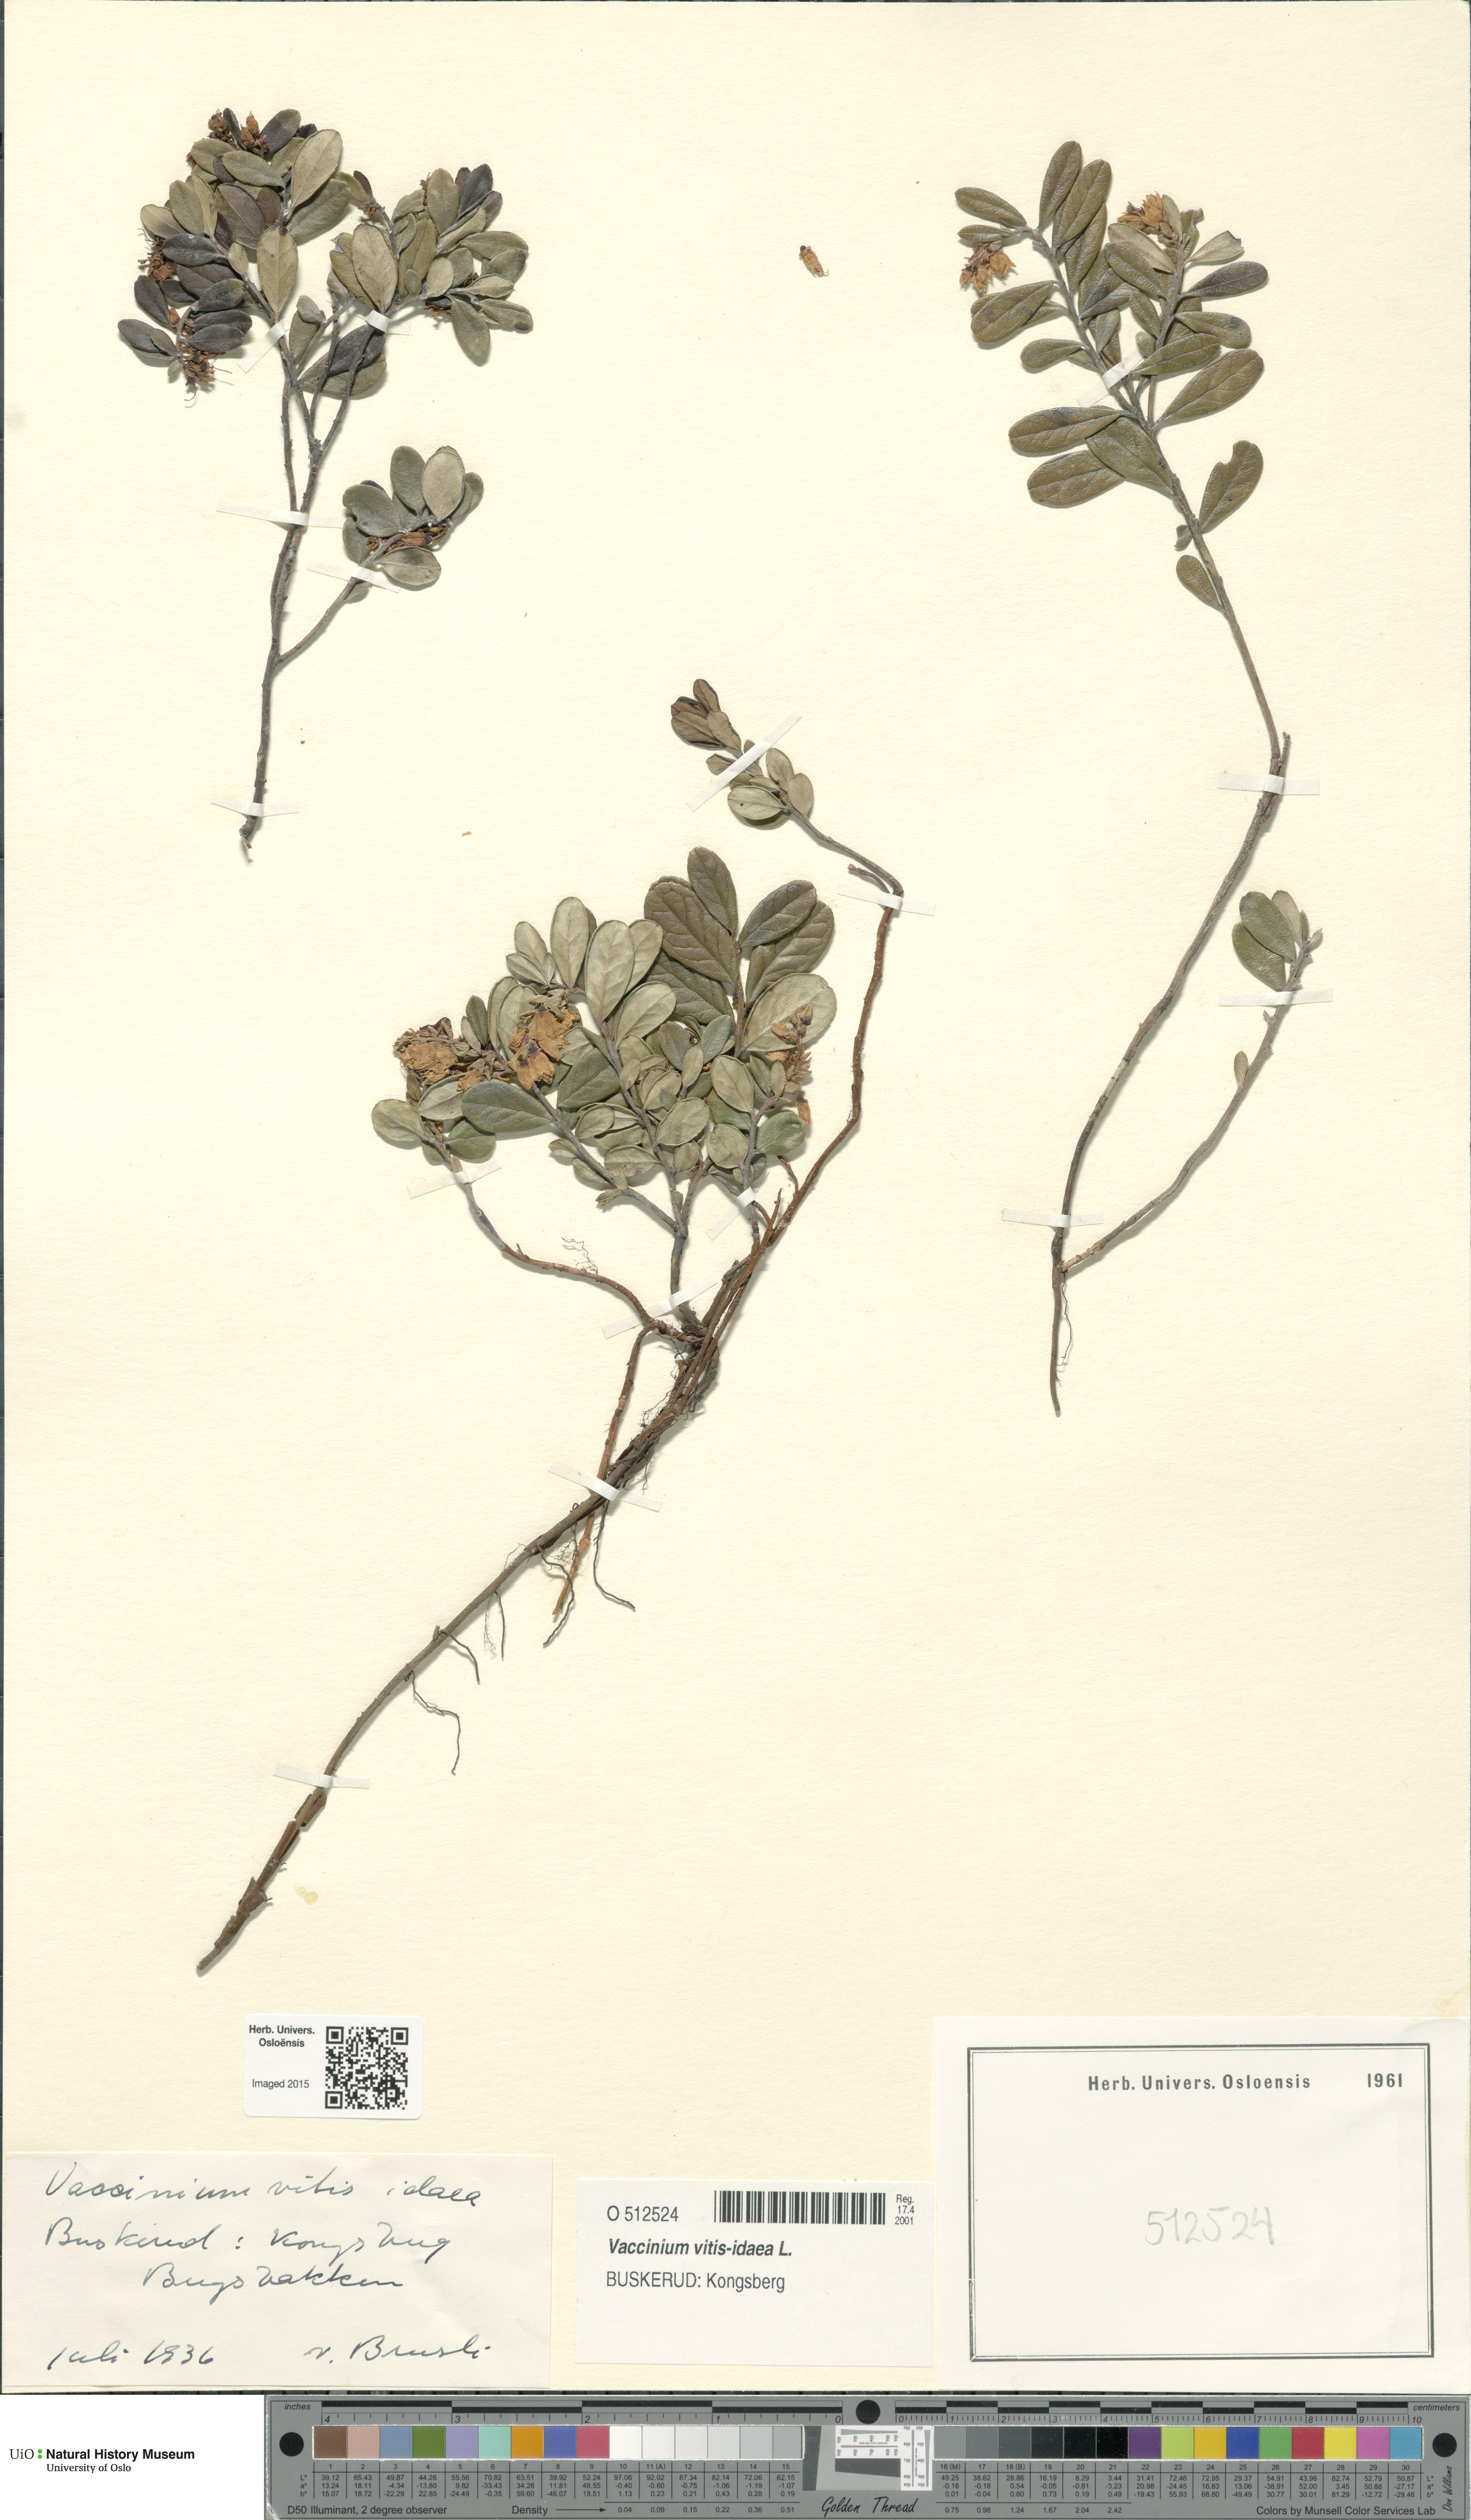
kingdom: Plantae
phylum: Tracheophyta
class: Magnoliopsida
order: Ericales
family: Ericaceae
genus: Vaccinium
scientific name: Vaccinium vitis-idaea
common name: Cowberry
